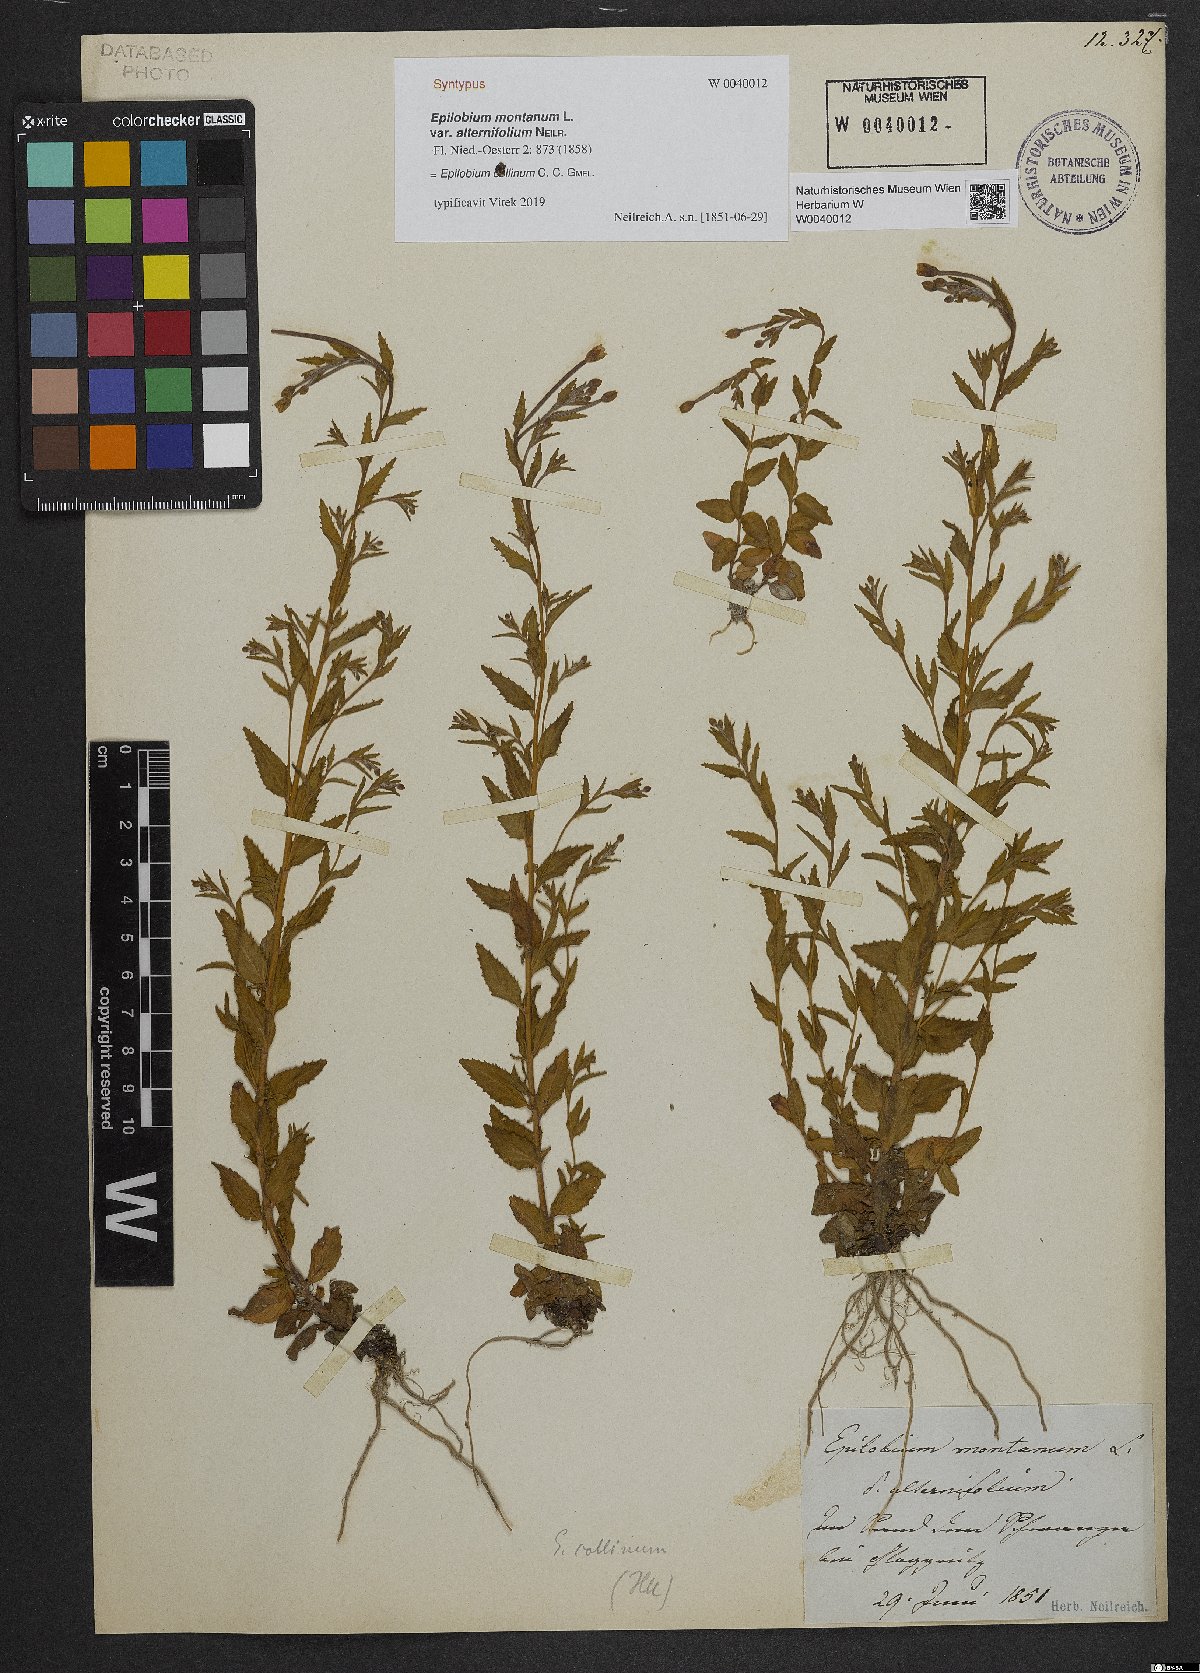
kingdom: Plantae
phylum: Tracheophyta
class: Magnoliopsida
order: Myrtales
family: Onagraceae
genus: Epilobium
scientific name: Epilobium montanum
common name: Broad-leaved willowherb
